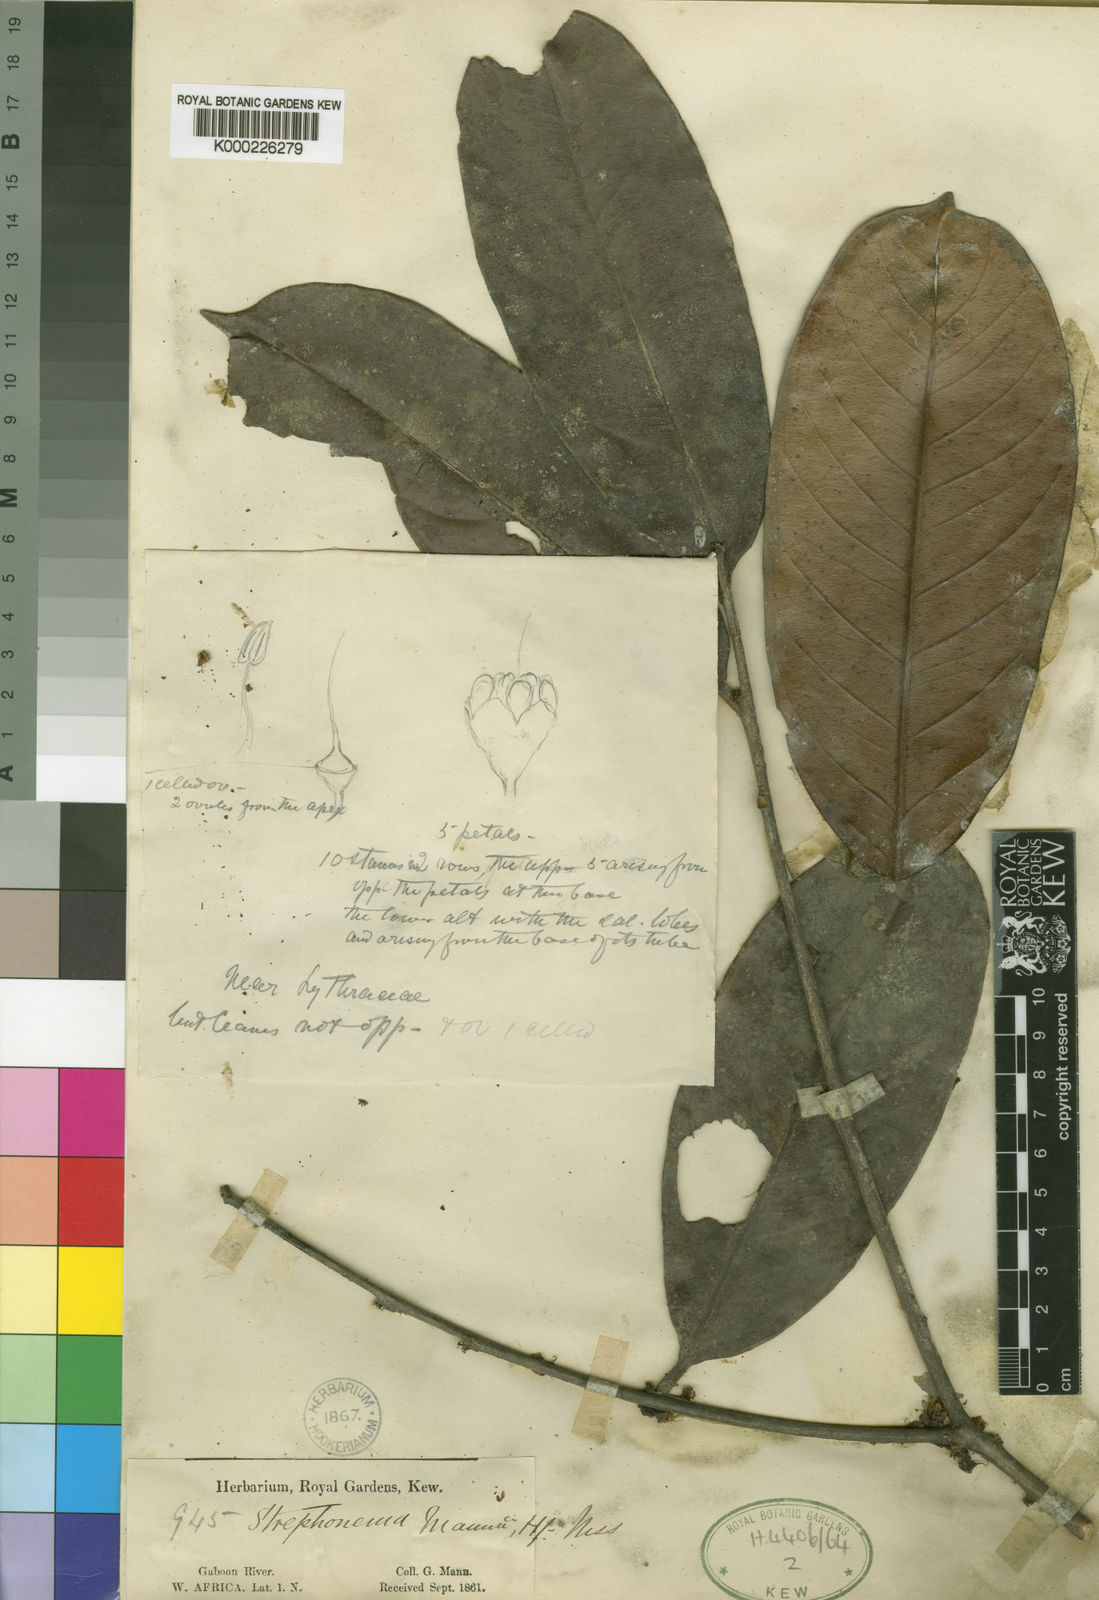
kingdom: Plantae
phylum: Tracheophyta
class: Magnoliopsida
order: Myrtales
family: Combretaceae
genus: Strephonema
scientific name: Strephonema mannii
